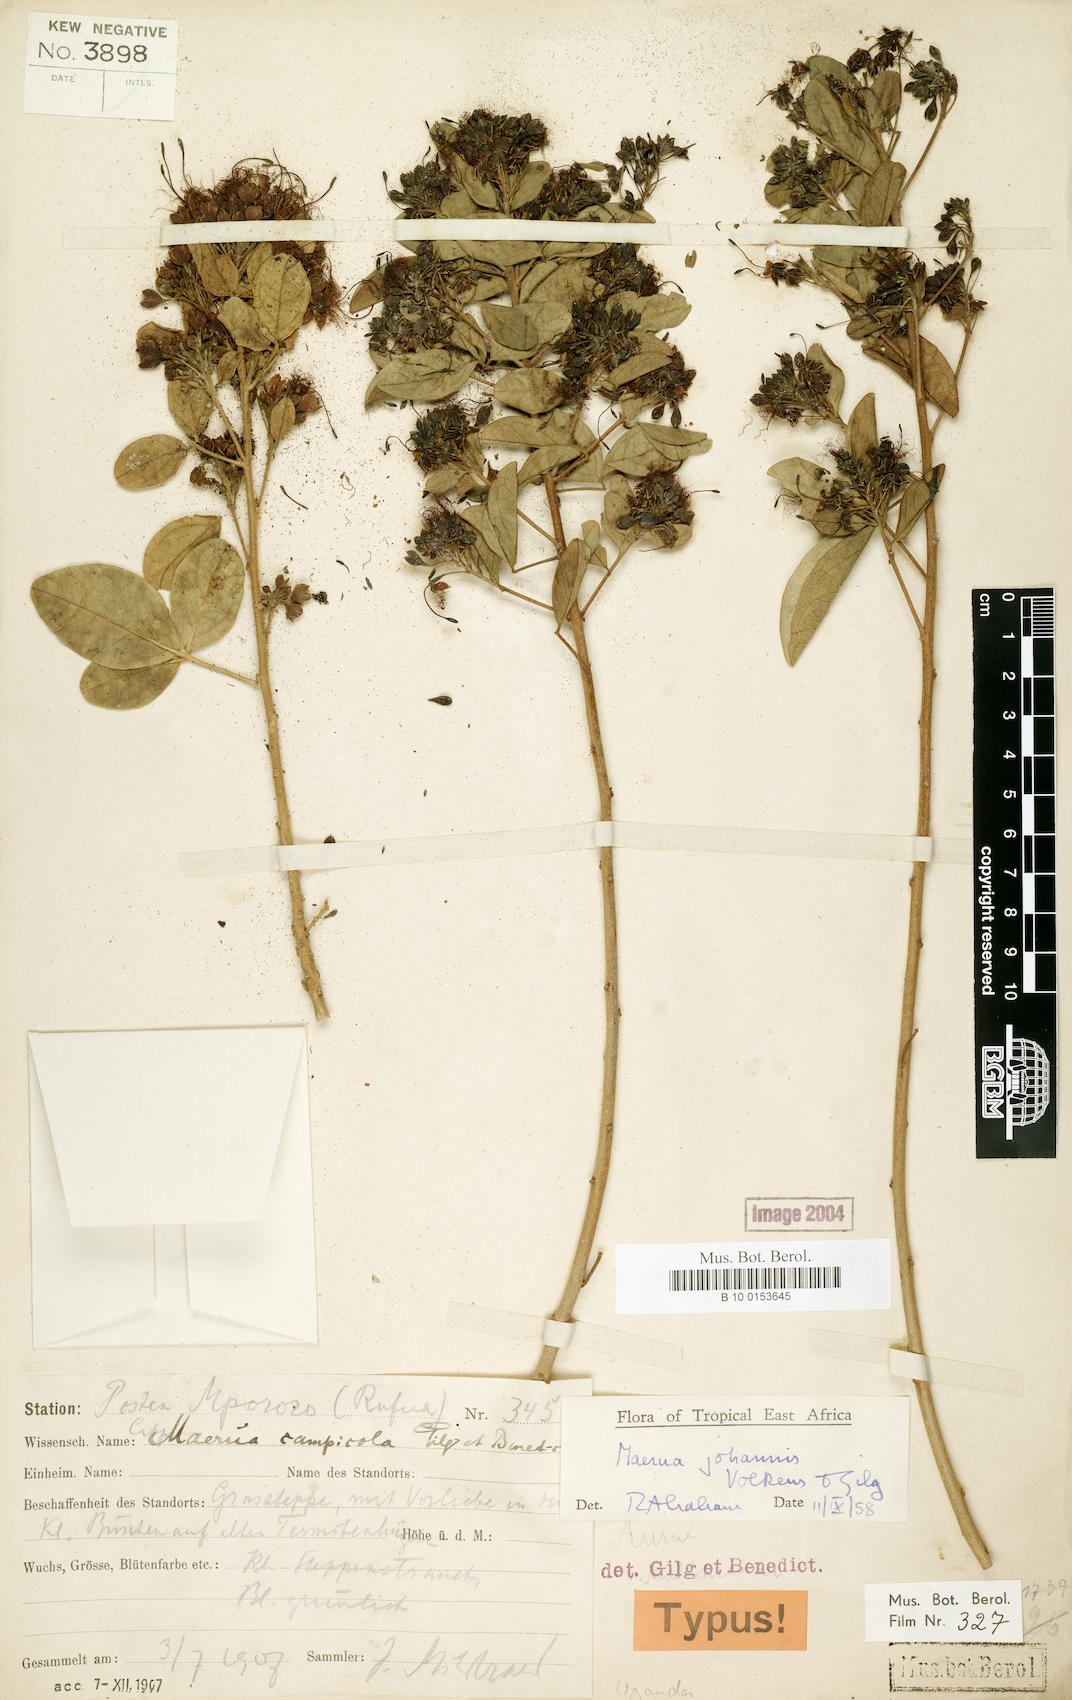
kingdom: Plantae
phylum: Tracheophyta
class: Magnoliopsida
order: Brassicales
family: Capparaceae
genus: Maerua
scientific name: Maerua triphylla
